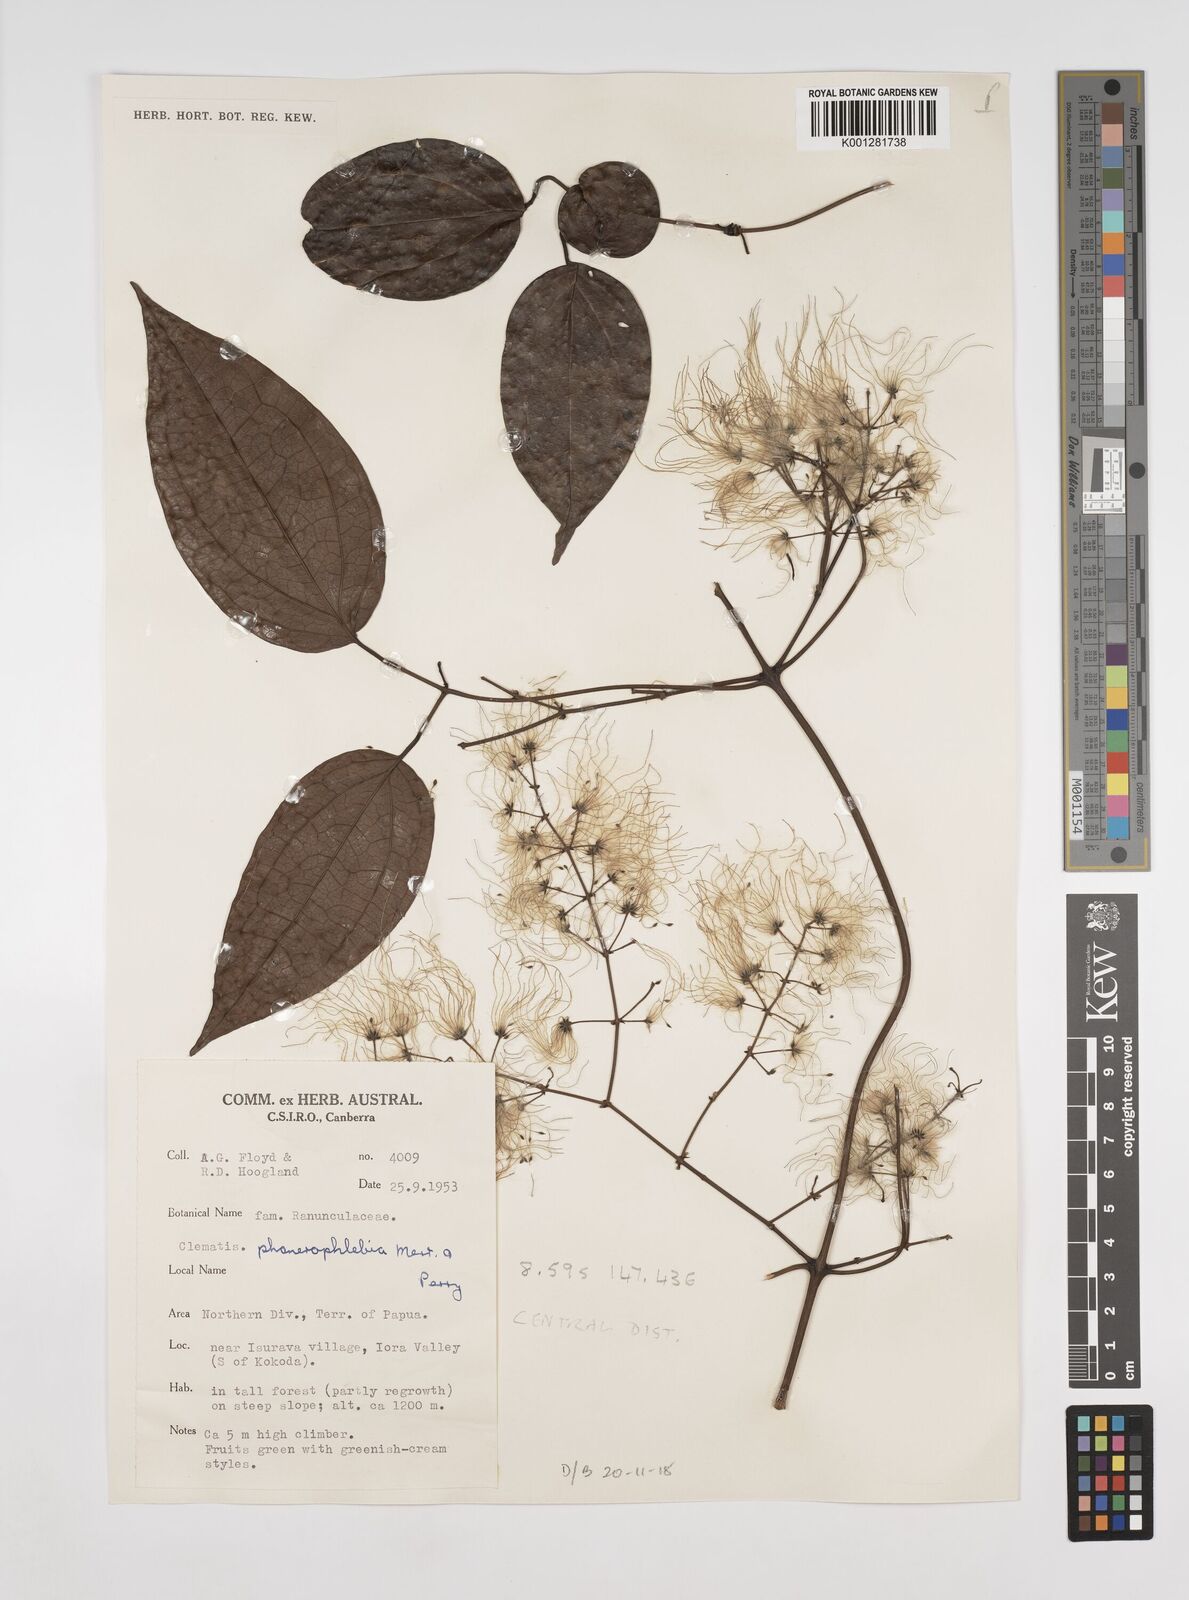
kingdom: Plantae
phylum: Tracheophyta
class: Magnoliopsida
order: Ranunculales
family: Ranunculaceae
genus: Clematis
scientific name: Clematis phanerophlebia
